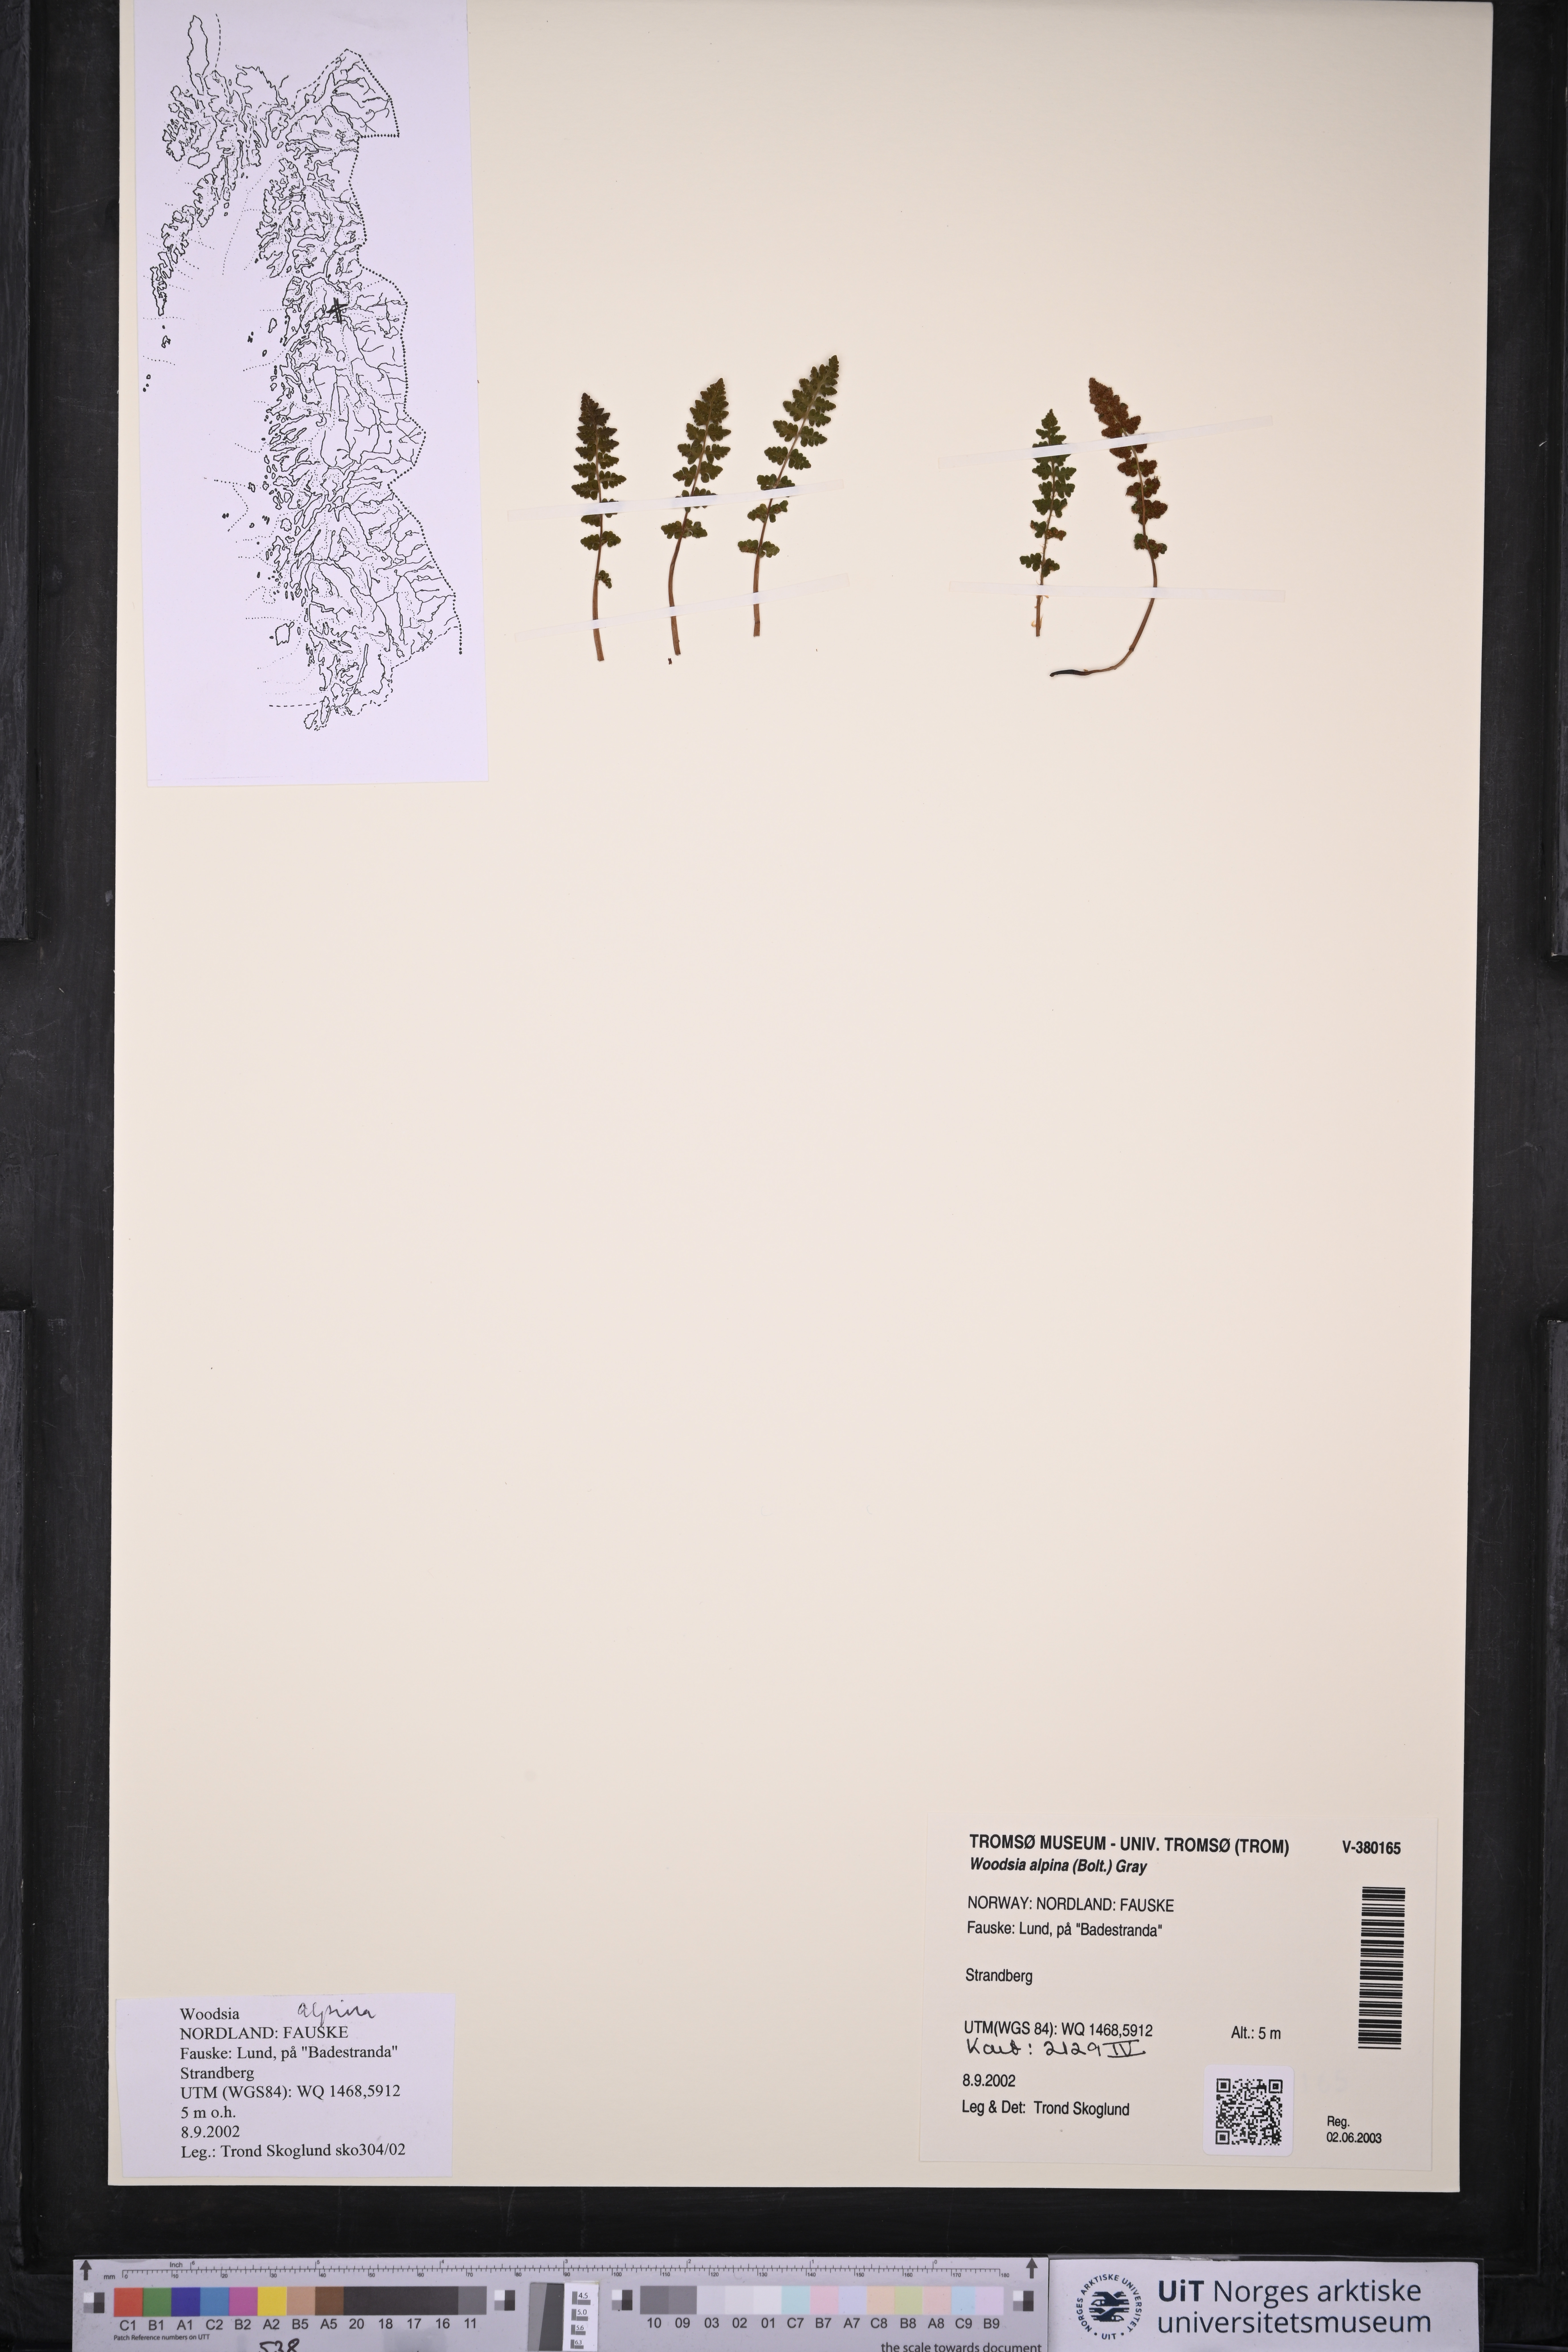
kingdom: Plantae
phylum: Tracheophyta
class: Polypodiopsida
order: Polypodiales
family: Woodsiaceae
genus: Woodsia
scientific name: Woodsia alpina
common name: Alpine woodsia
